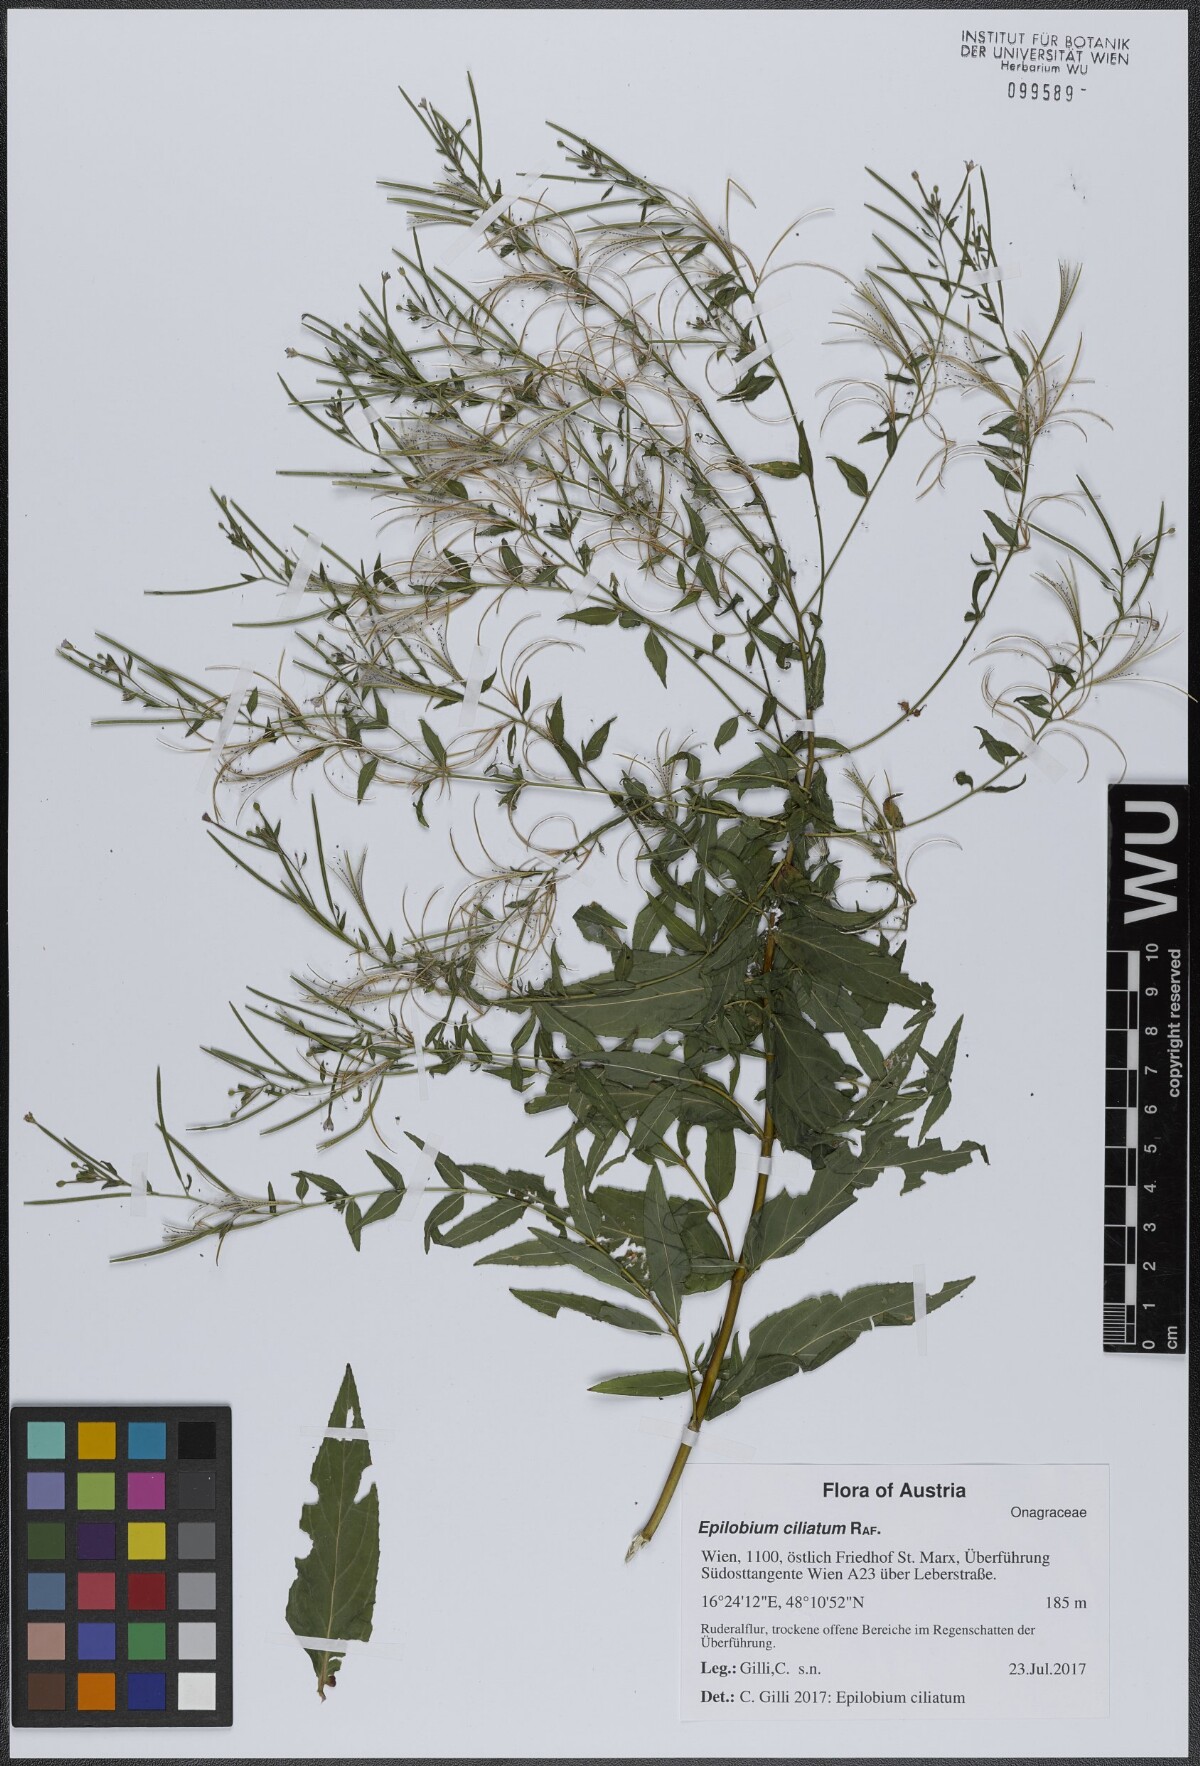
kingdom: Plantae
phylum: Tracheophyta
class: Magnoliopsida
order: Myrtales
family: Onagraceae
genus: Epilobium
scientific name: Epilobium ciliatum
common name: American willowherb
